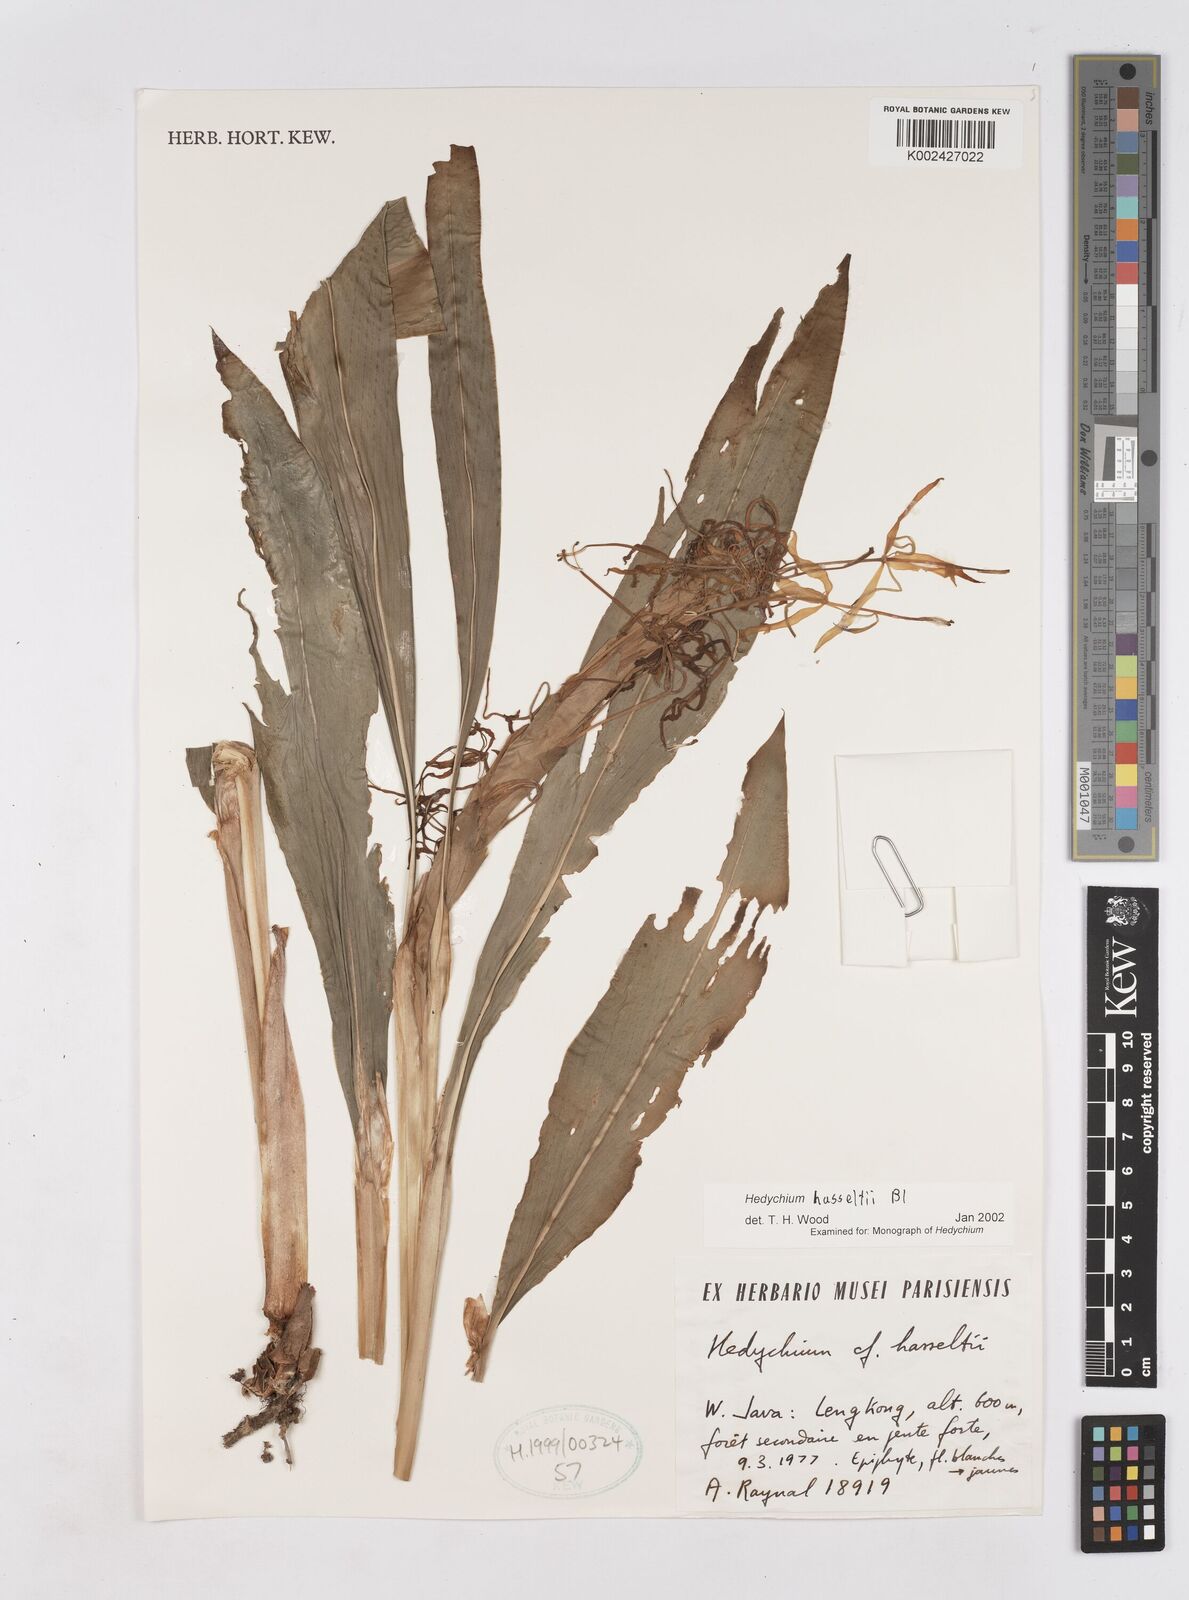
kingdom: Plantae
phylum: Tracheophyta
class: Liliopsida
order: Zingiberales
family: Zingiberaceae
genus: Hedychium
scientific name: Hedychium
